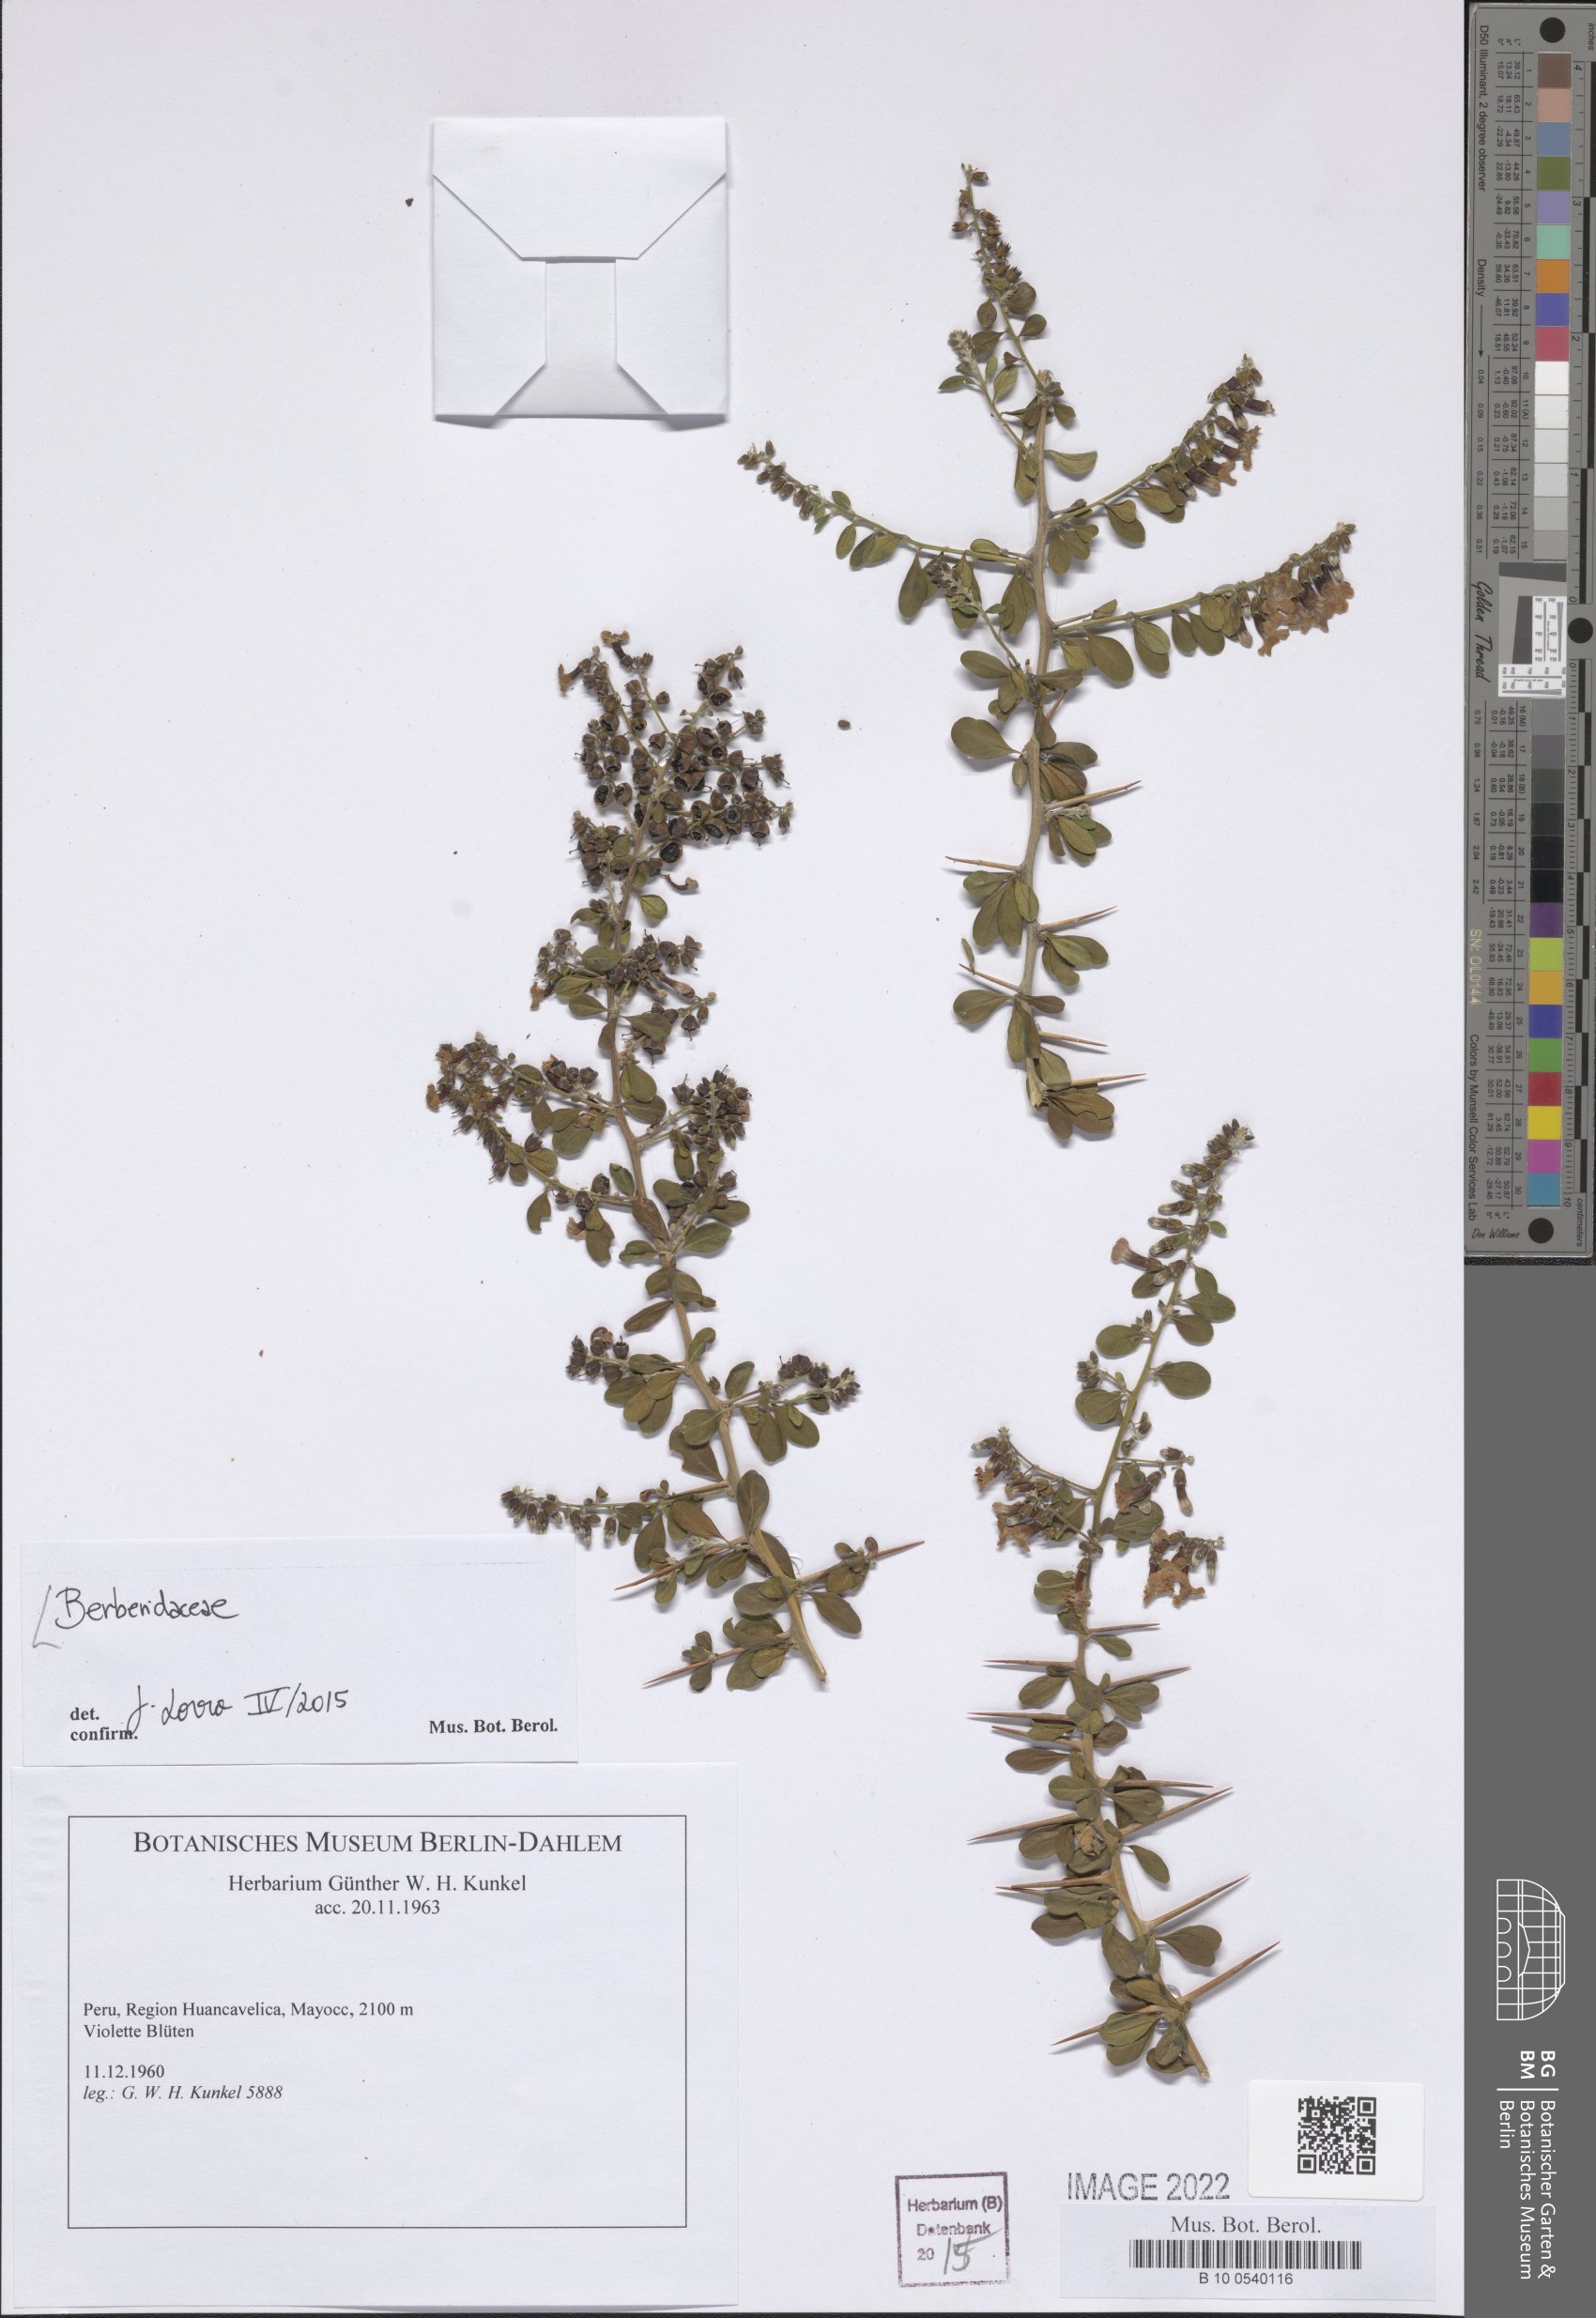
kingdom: Plantae
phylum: Tracheophyta
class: Magnoliopsida
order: Ranunculales
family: Berberidaceae
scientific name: Berberidaceae
